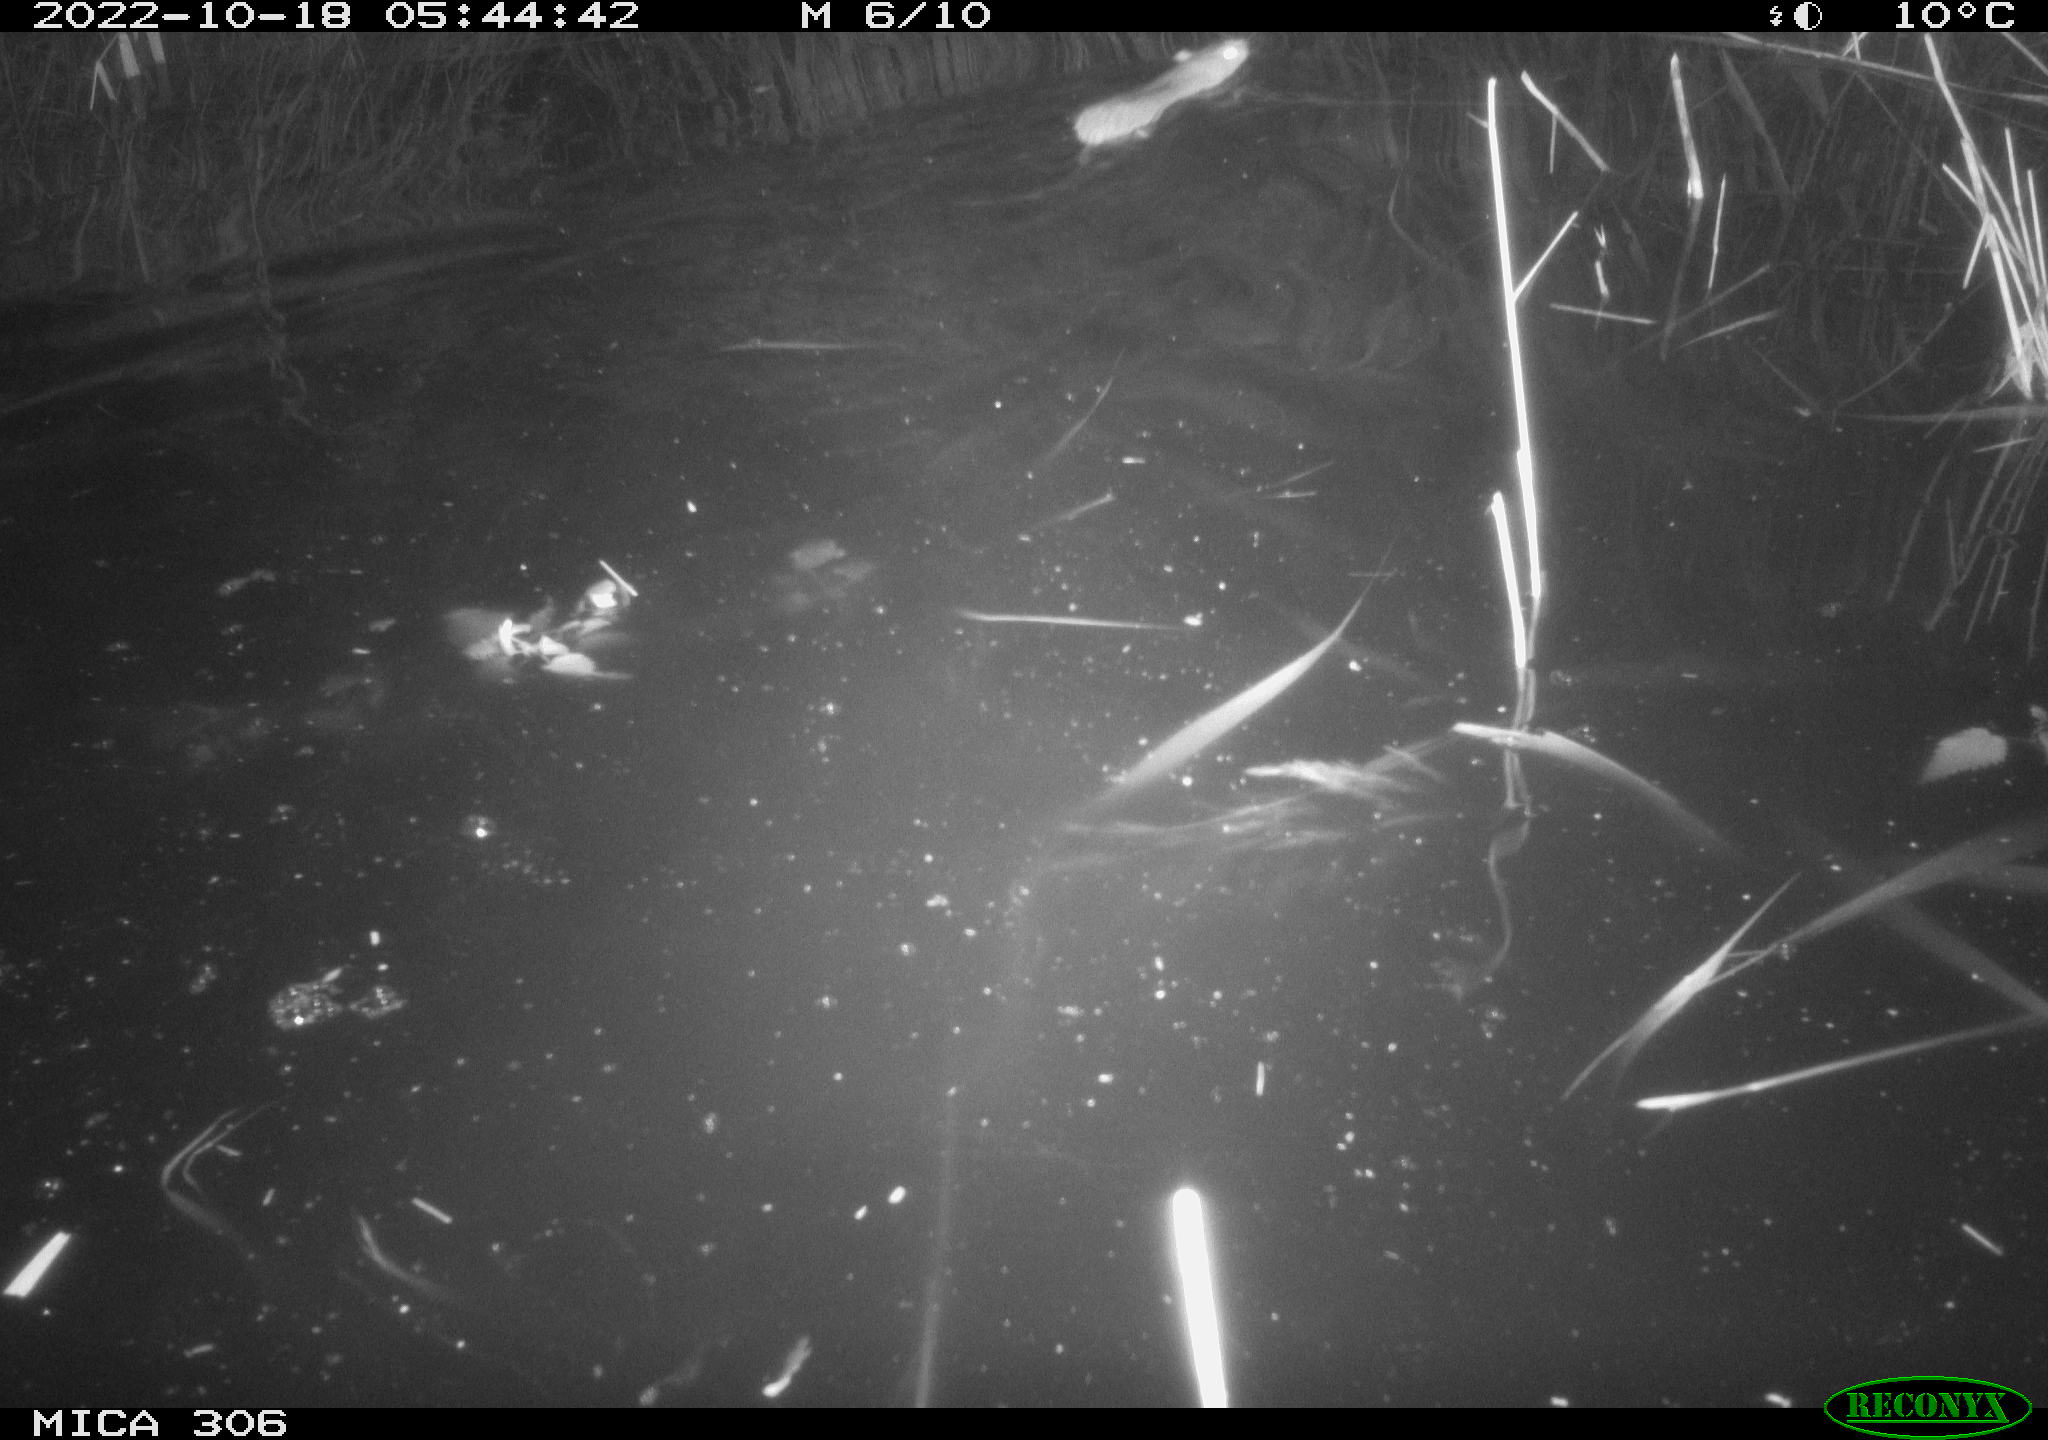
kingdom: Animalia
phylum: Chordata
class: Mammalia
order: Rodentia
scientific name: Rodentia
